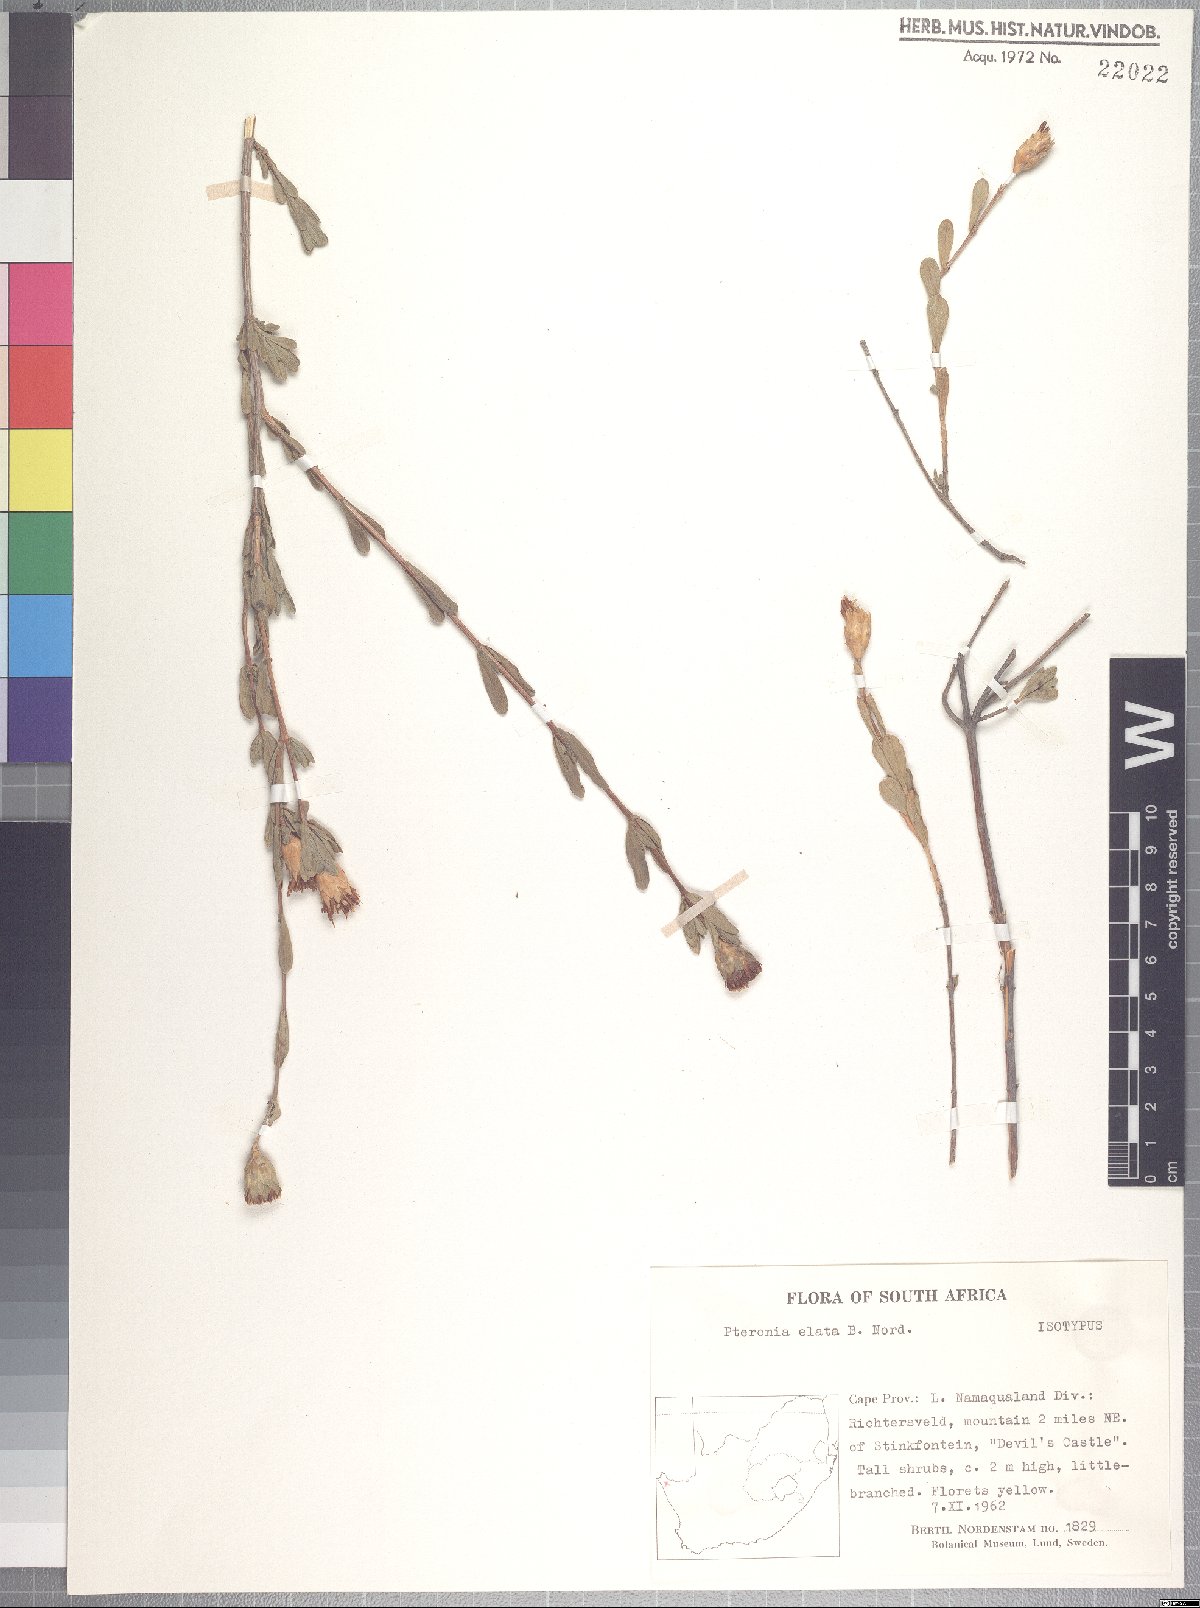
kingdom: Plantae
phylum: Tracheophyta
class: Magnoliopsida
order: Asterales
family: Asteraceae
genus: Pteronia
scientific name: Pteronia elata
